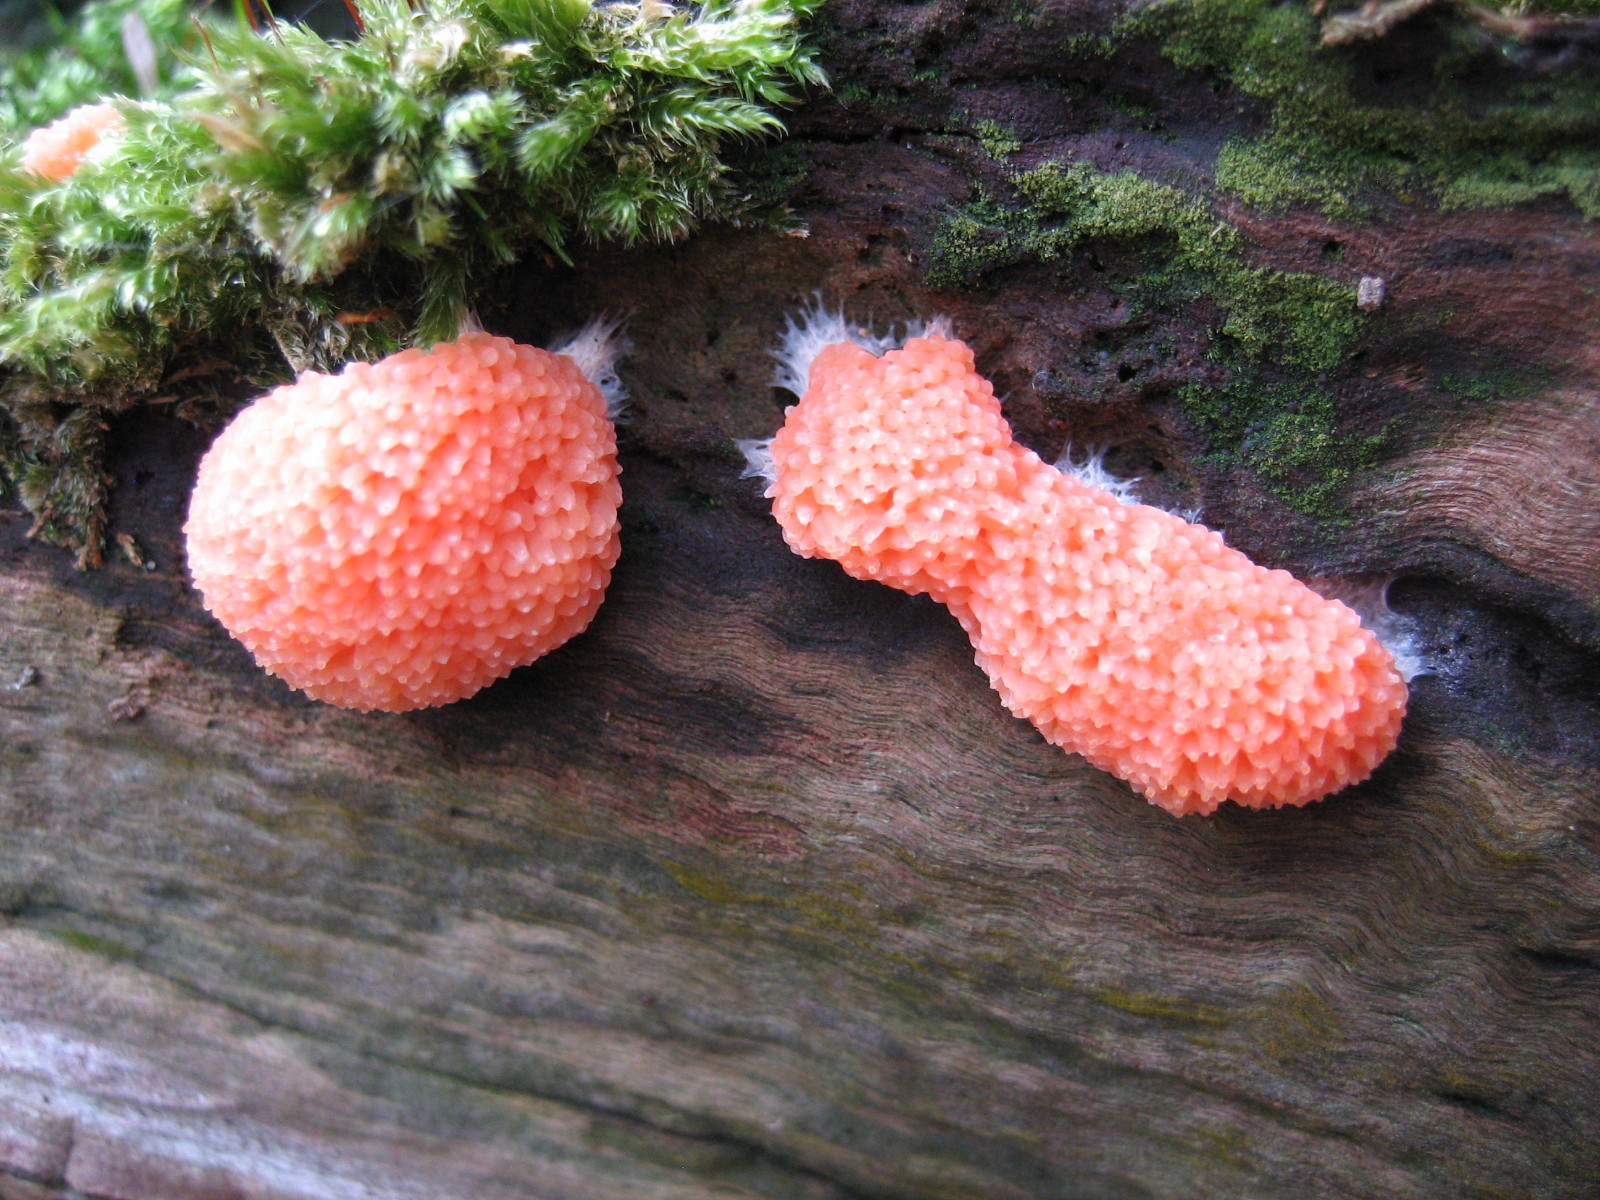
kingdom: Protozoa
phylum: Mycetozoa
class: Myxomycetes
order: Cribrariales
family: Tubiferaceae
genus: Tubifera
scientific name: Tubifera ferruginosa
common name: kanel-støvrør
